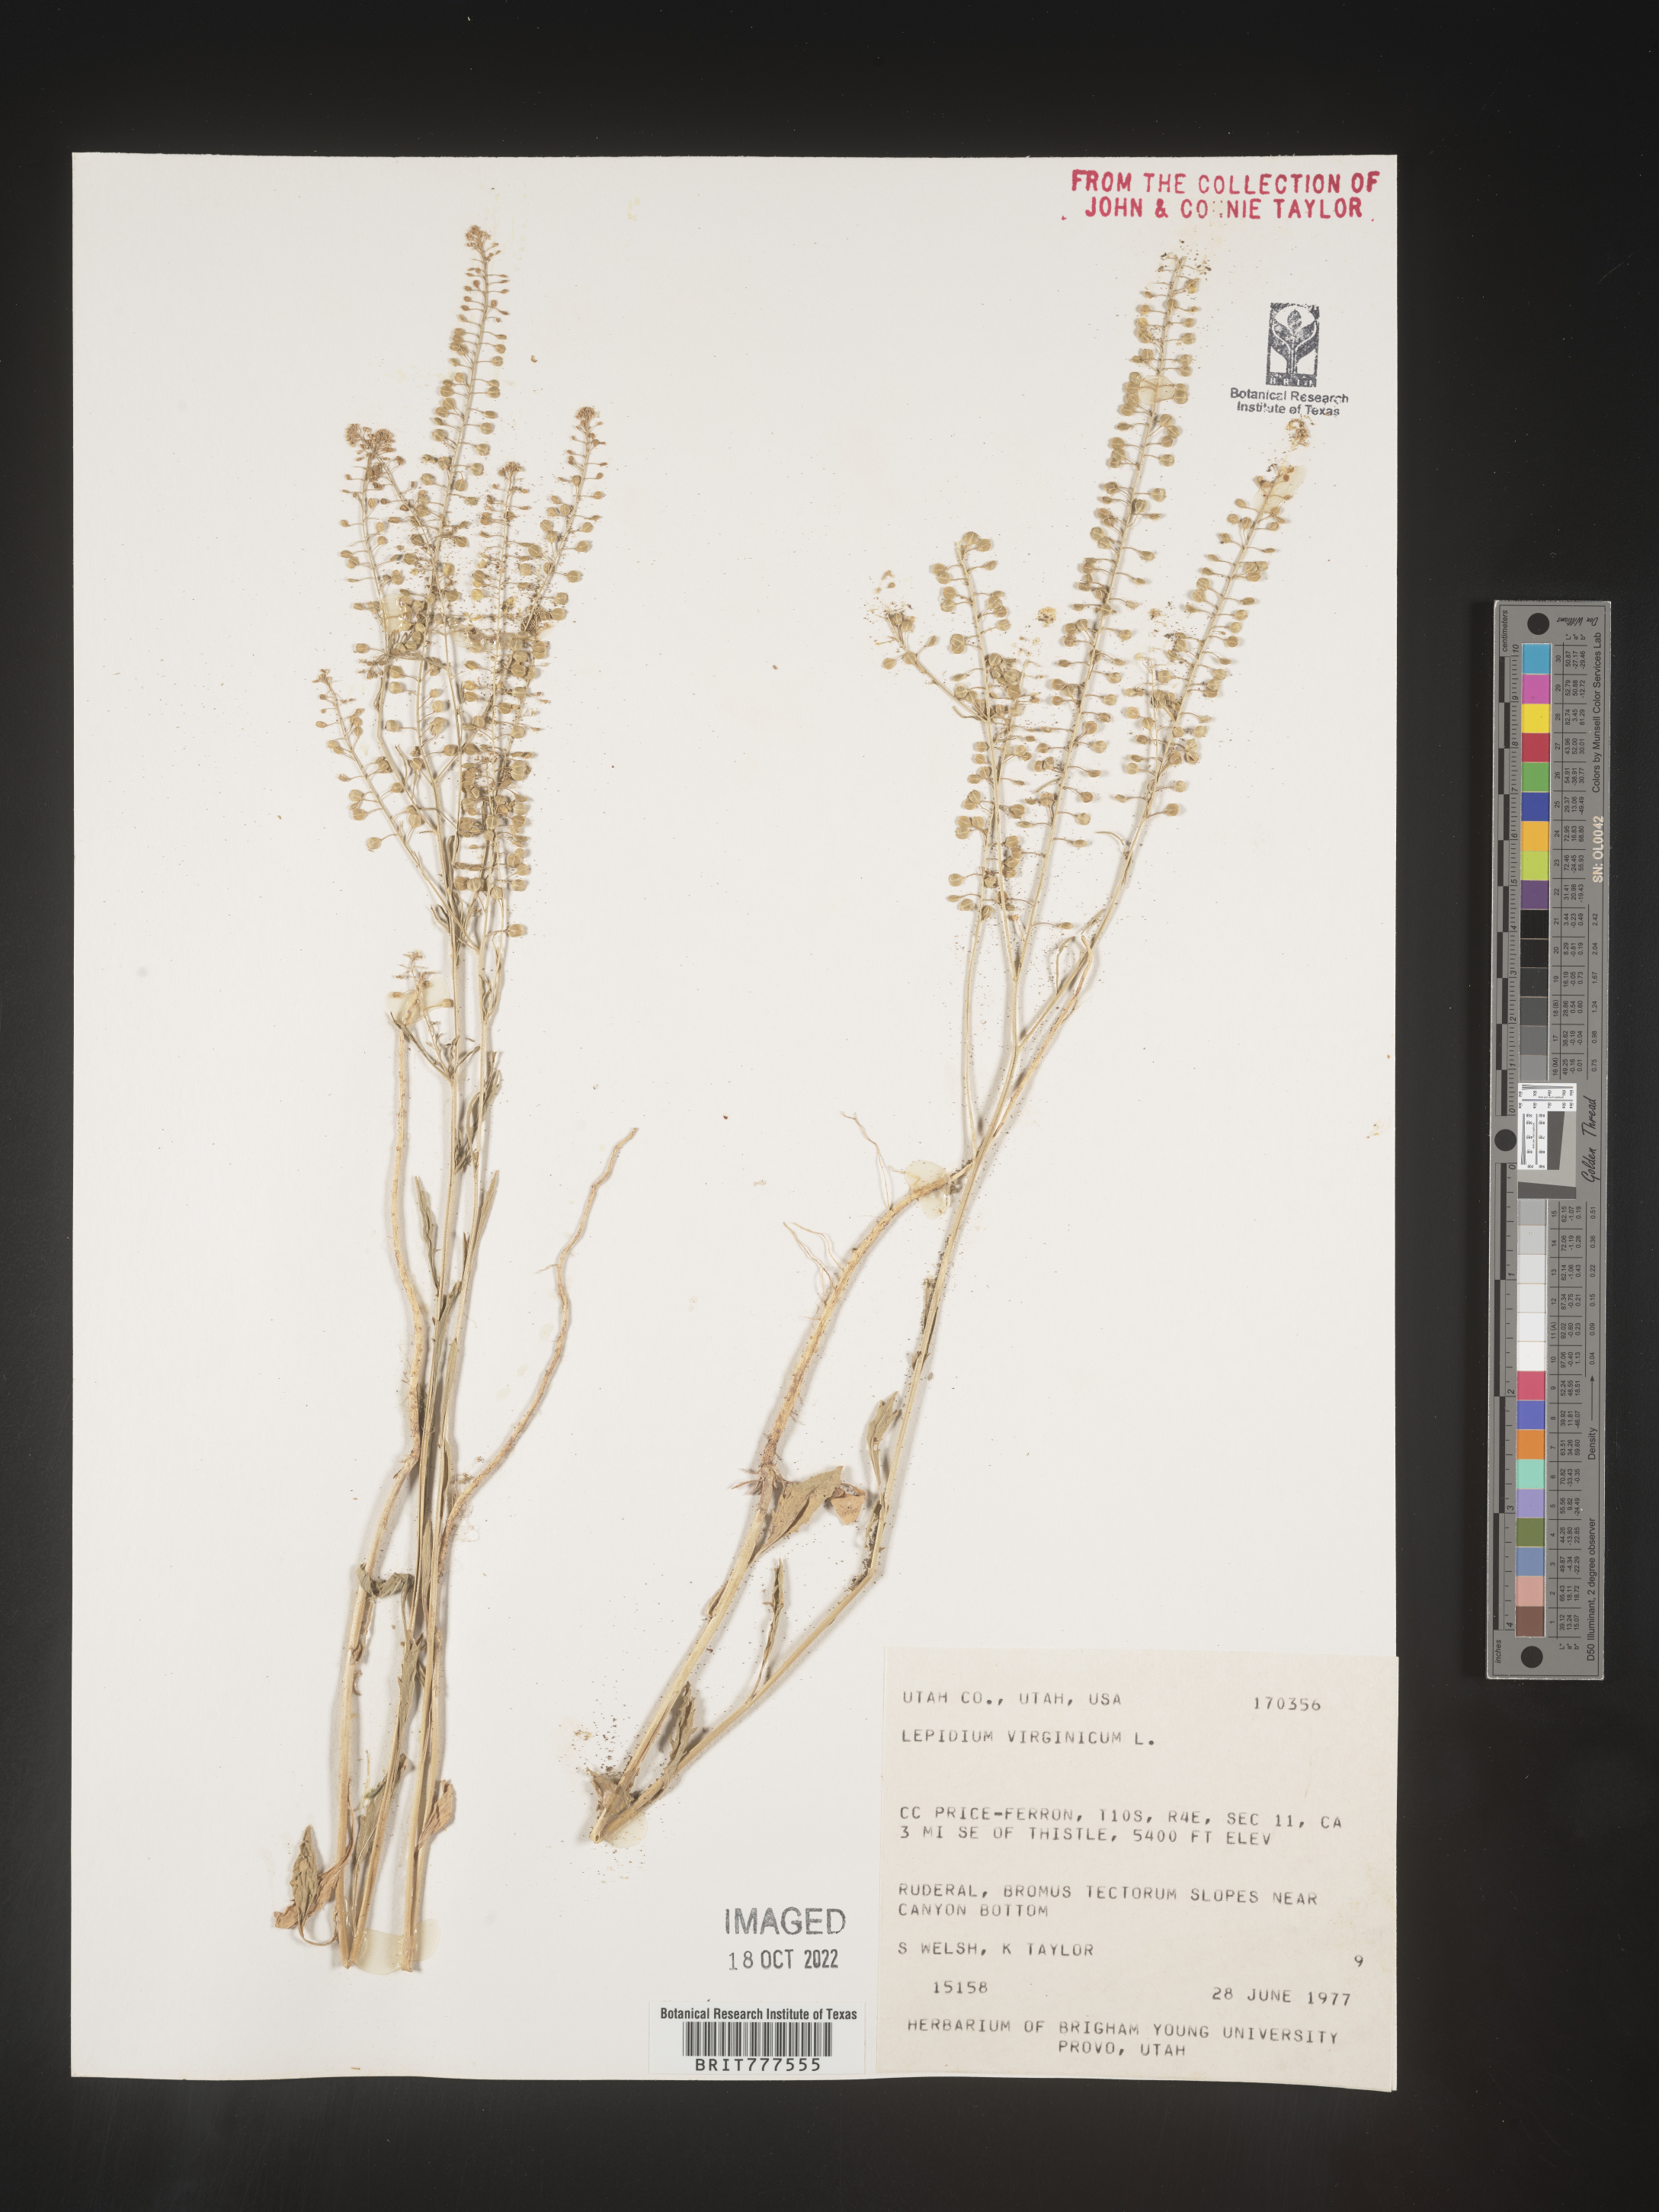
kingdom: Plantae
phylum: Tracheophyta
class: Magnoliopsida
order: Brassicales
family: Brassicaceae
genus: Lepidium
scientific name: Lepidium virginicum
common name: Least pepperwort
